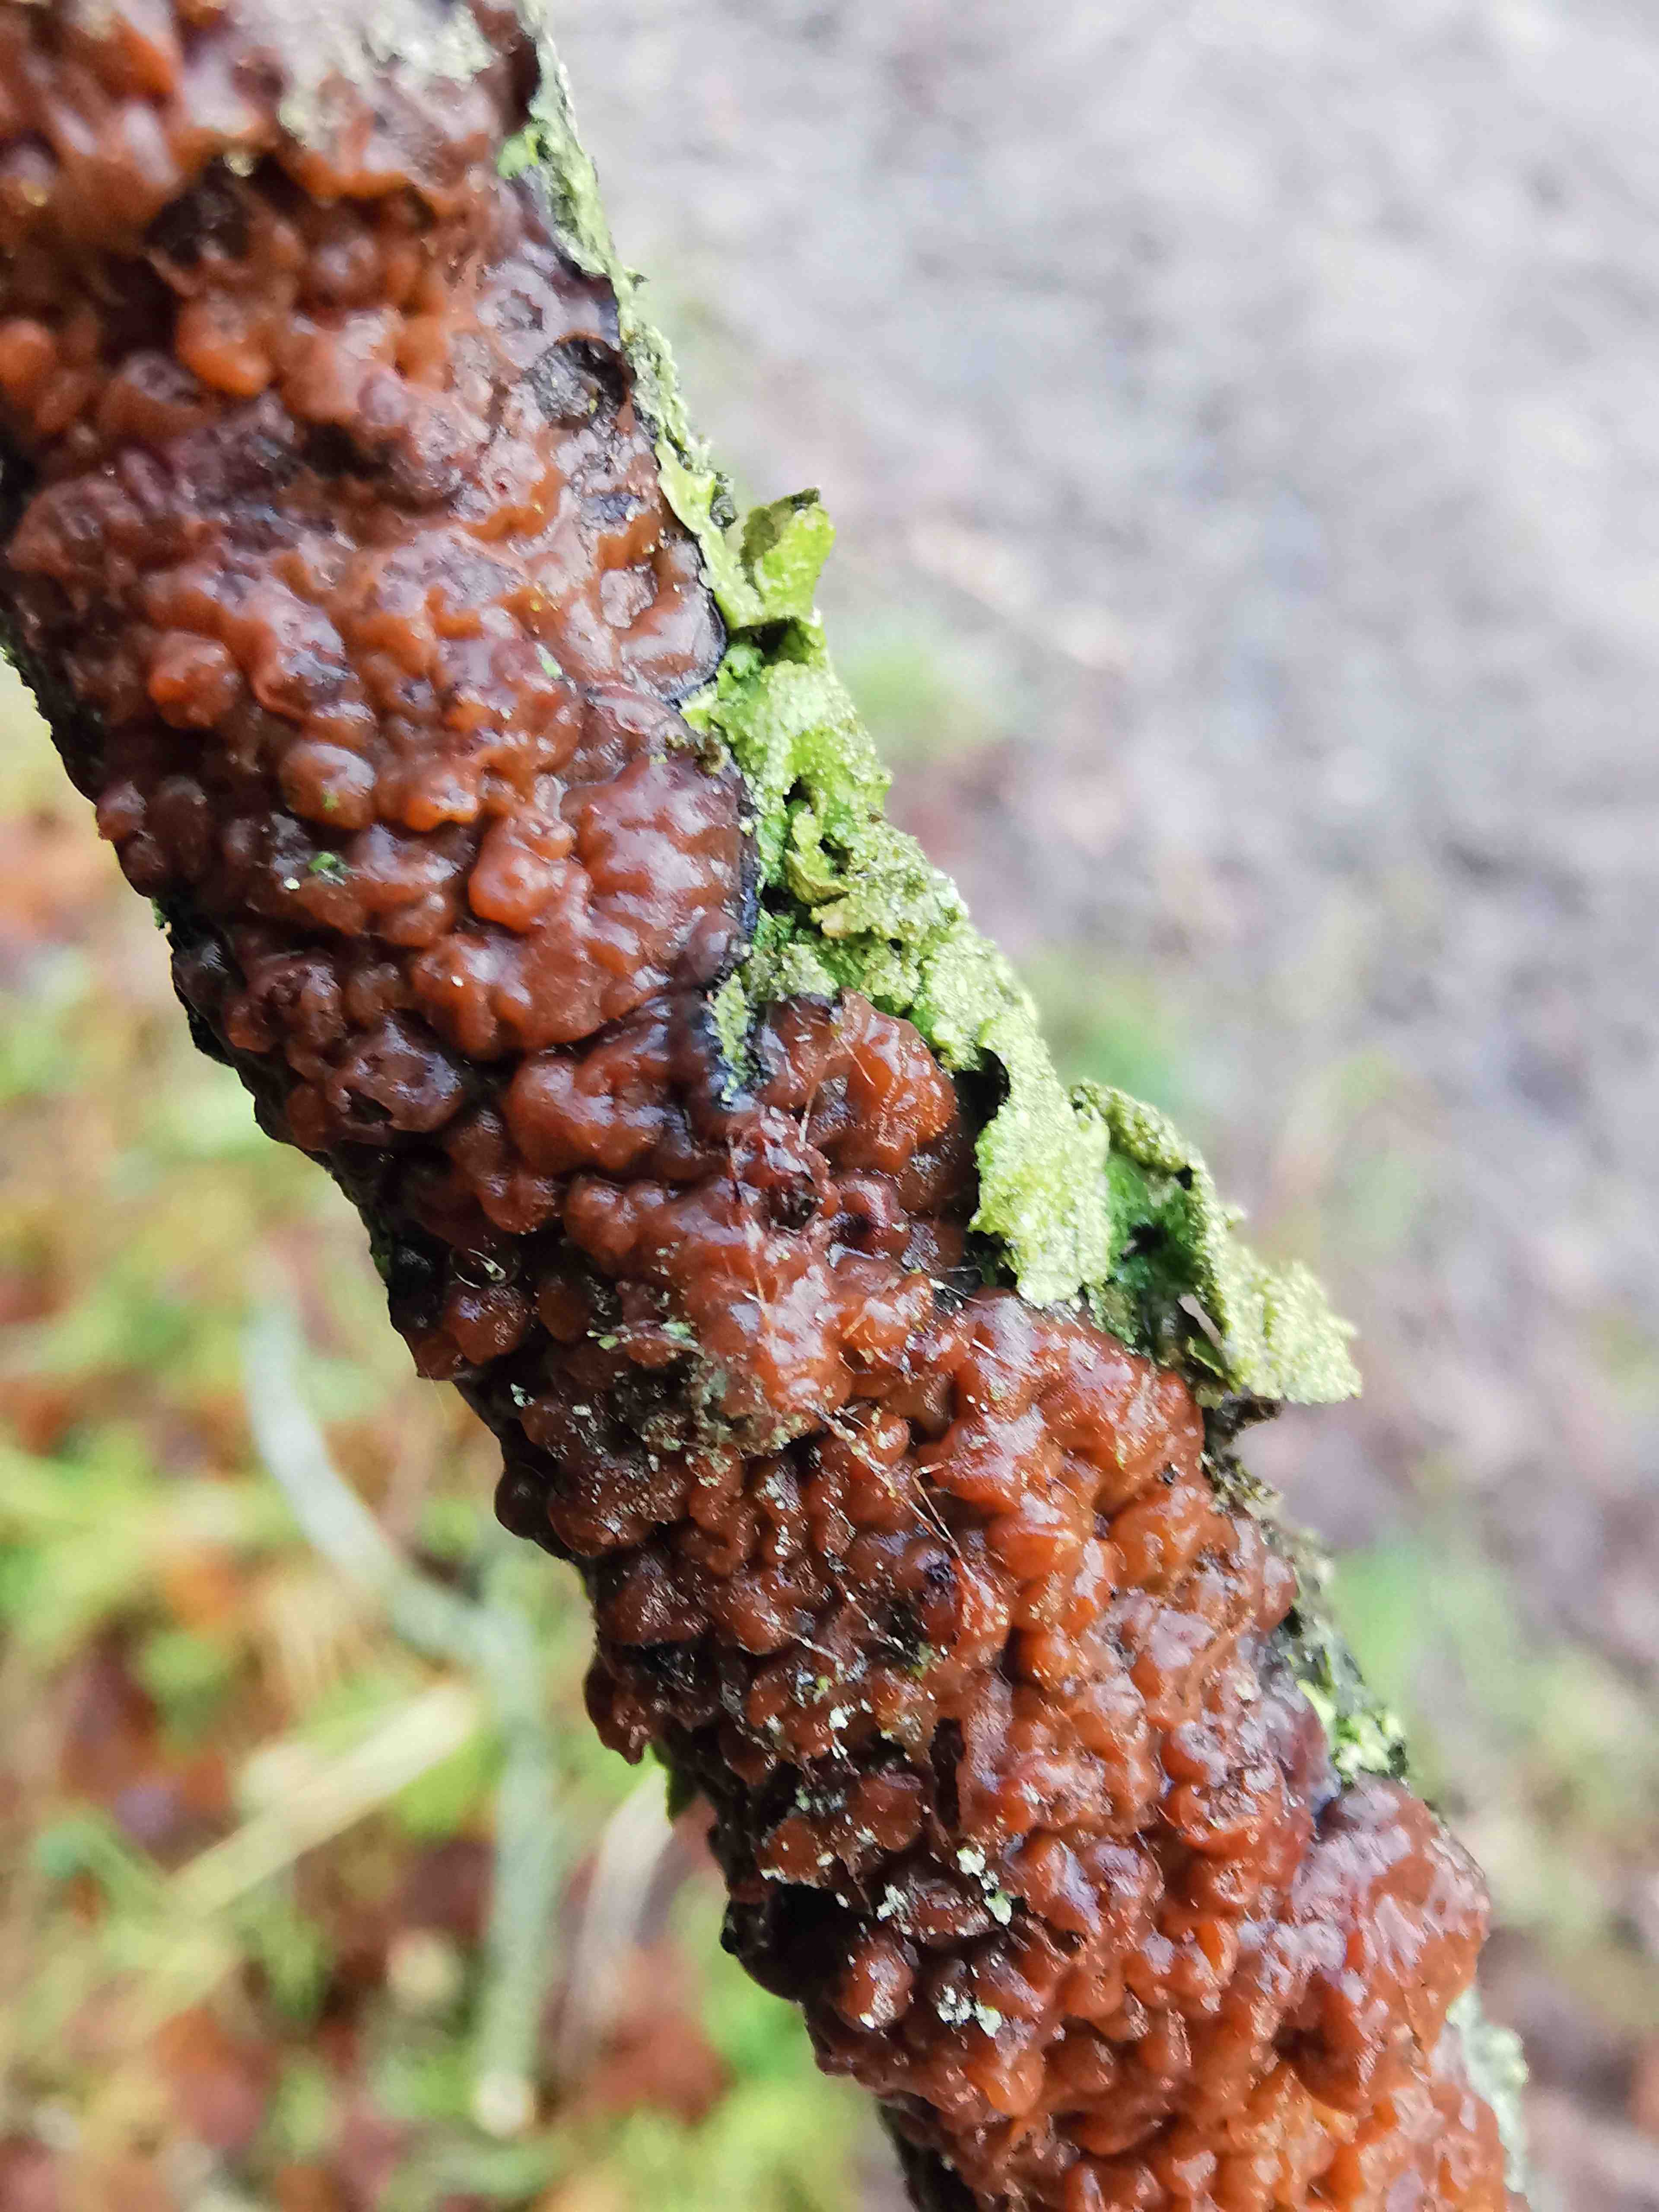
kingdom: Fungi
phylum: Basidiomycota
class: Agaricomycetes
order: Russulales
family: Peniophoraceae
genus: Peniophora
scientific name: Peniophora quercina
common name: ege-voksskind
